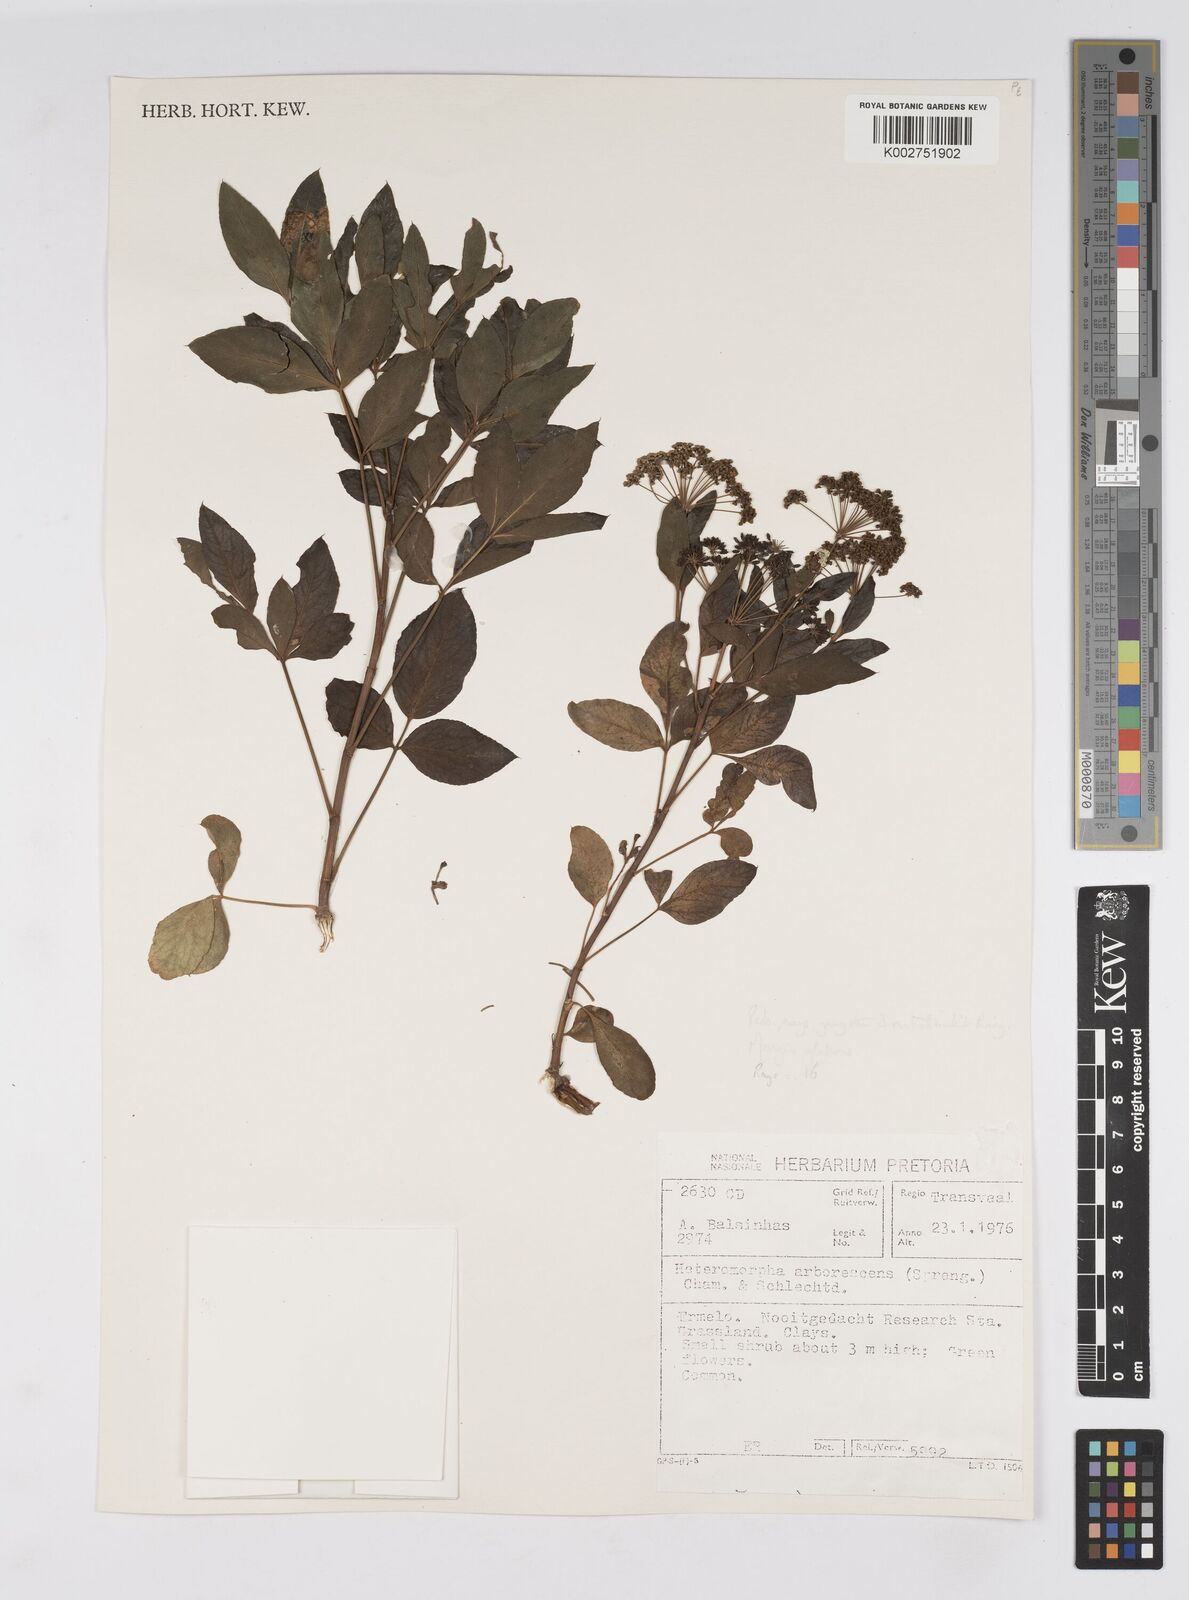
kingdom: Plantae
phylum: Tracheophyta
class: Magnoliopsida
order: Apiales
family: Apiaceae
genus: Heteromorpha
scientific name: Heteromorpha arborescens
